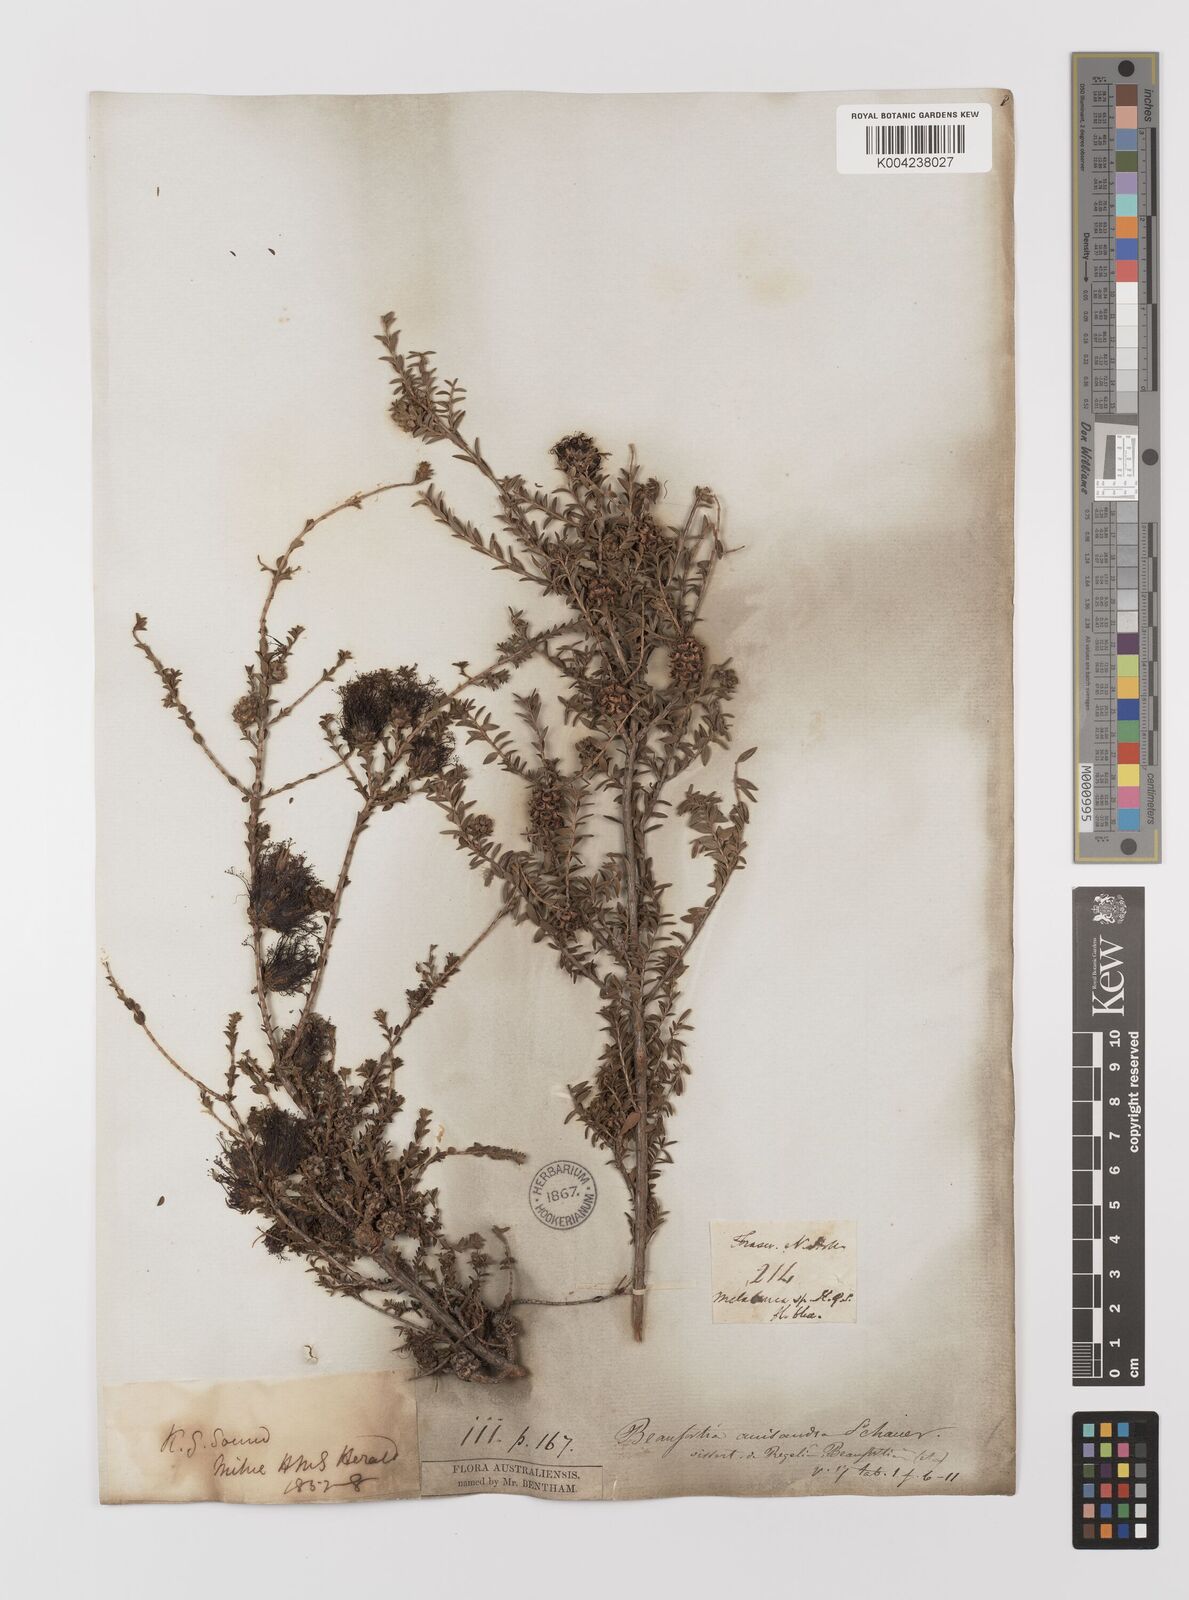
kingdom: Plantae
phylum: Tracheophyta
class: Magnoliopsida
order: Myrtales
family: Myrtaceae
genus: Melaleuca
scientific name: Melaleuca anisandra
